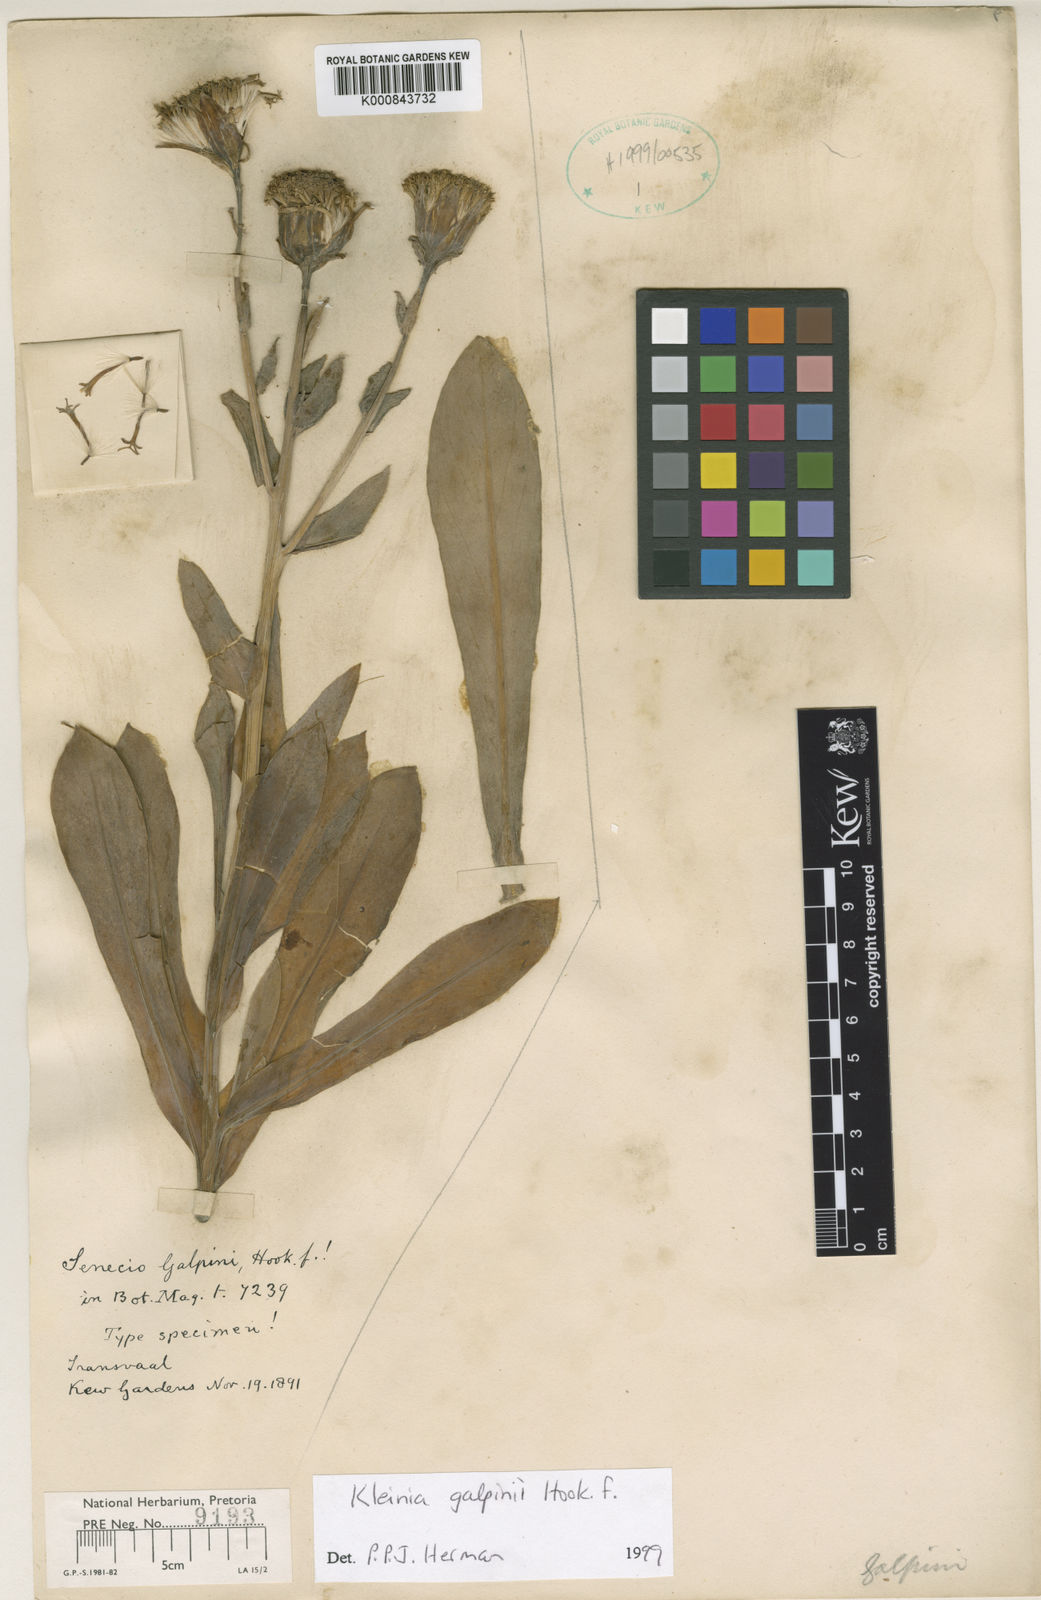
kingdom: Plantae
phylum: Tracheophyta
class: Magnoliopsida
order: Asterales
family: Asteraceae
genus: Kleinia
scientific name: Kleinia
